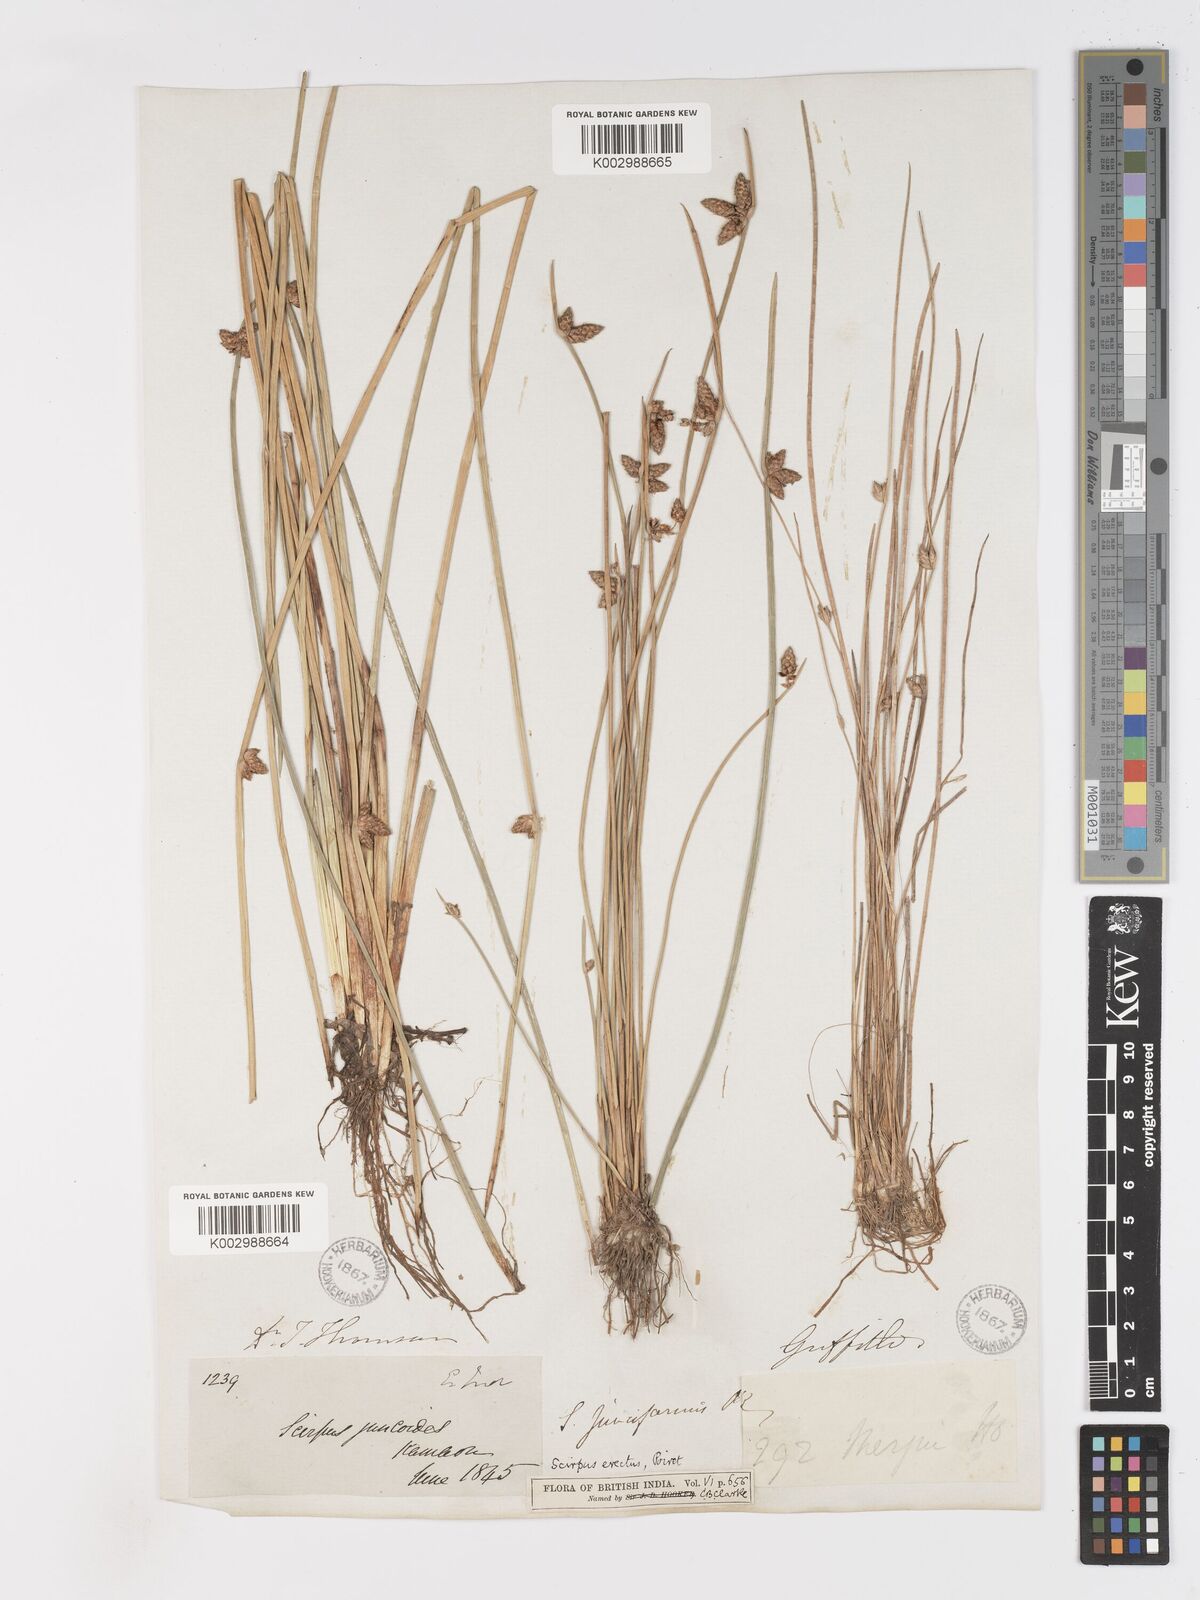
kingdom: Plantae
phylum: Tracheophyta
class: Liliopsida
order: Poales
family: Cyperaceae
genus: Schoenoplectiella
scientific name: Schoenoplectiella juncoides
